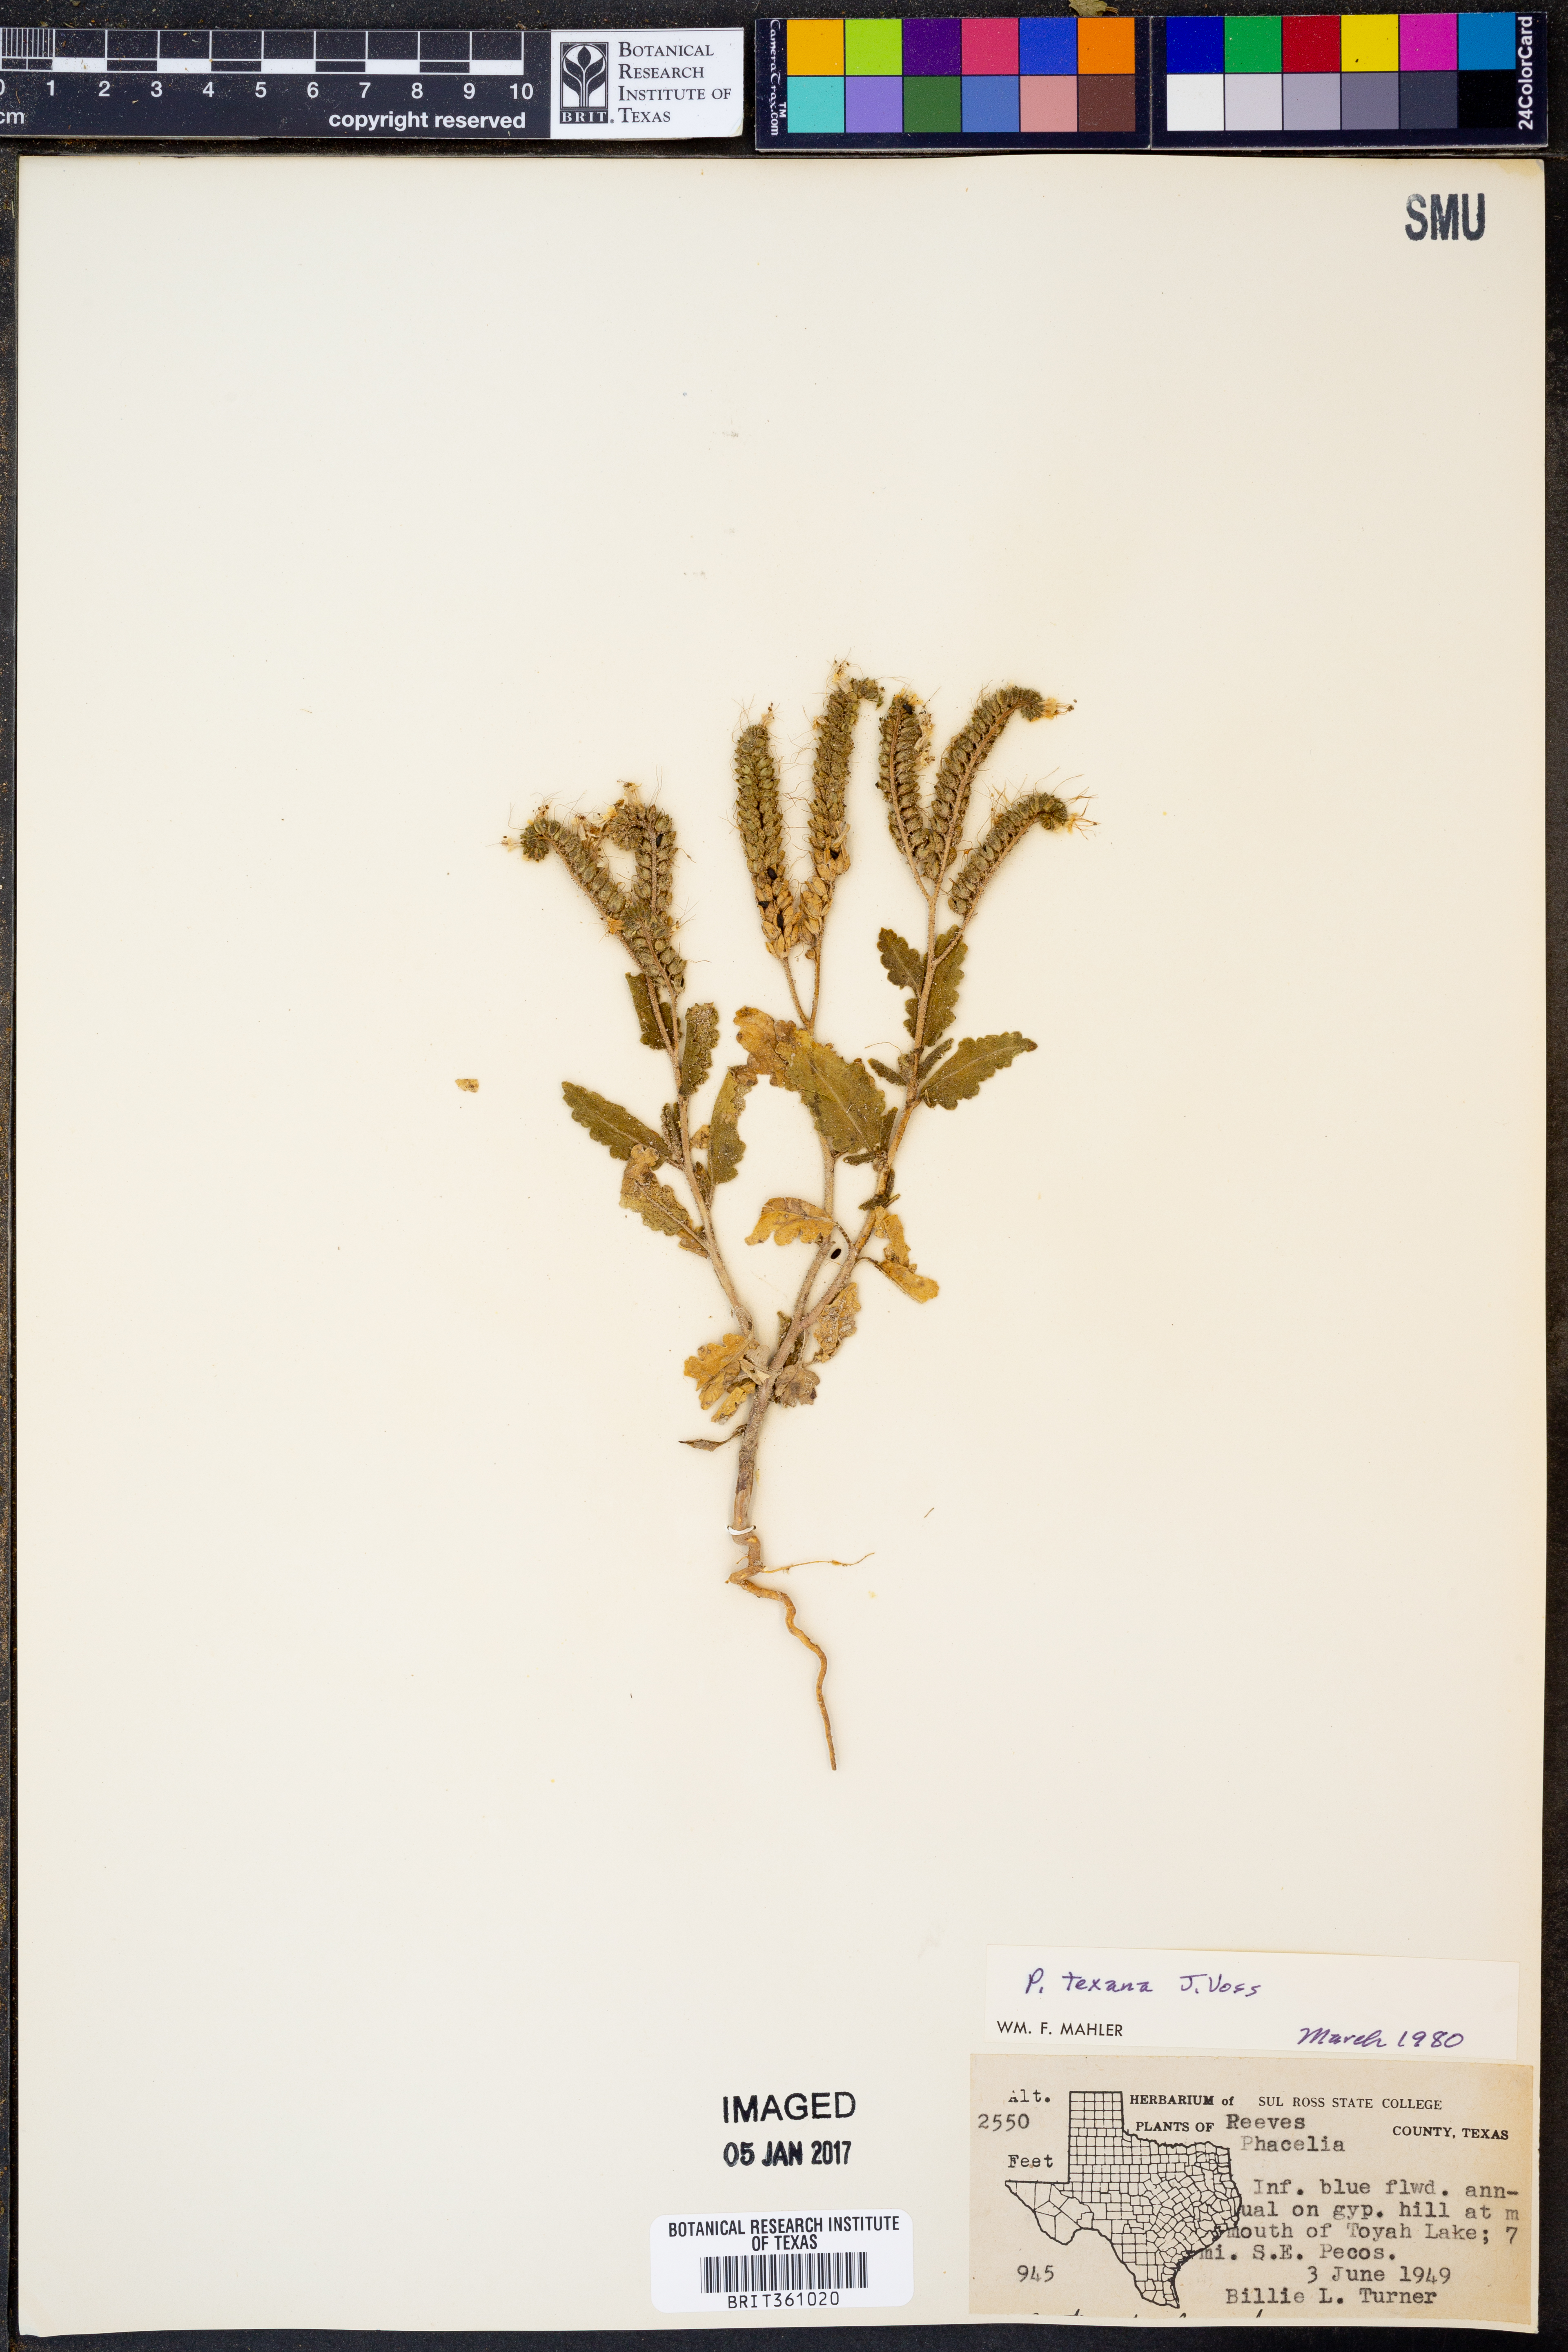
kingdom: Plantae
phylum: Tracheophyta
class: Magnoliopsida
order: Boraginales
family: Hydrophyllaceae
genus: Phacelia
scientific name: Phacelia integrifolia
